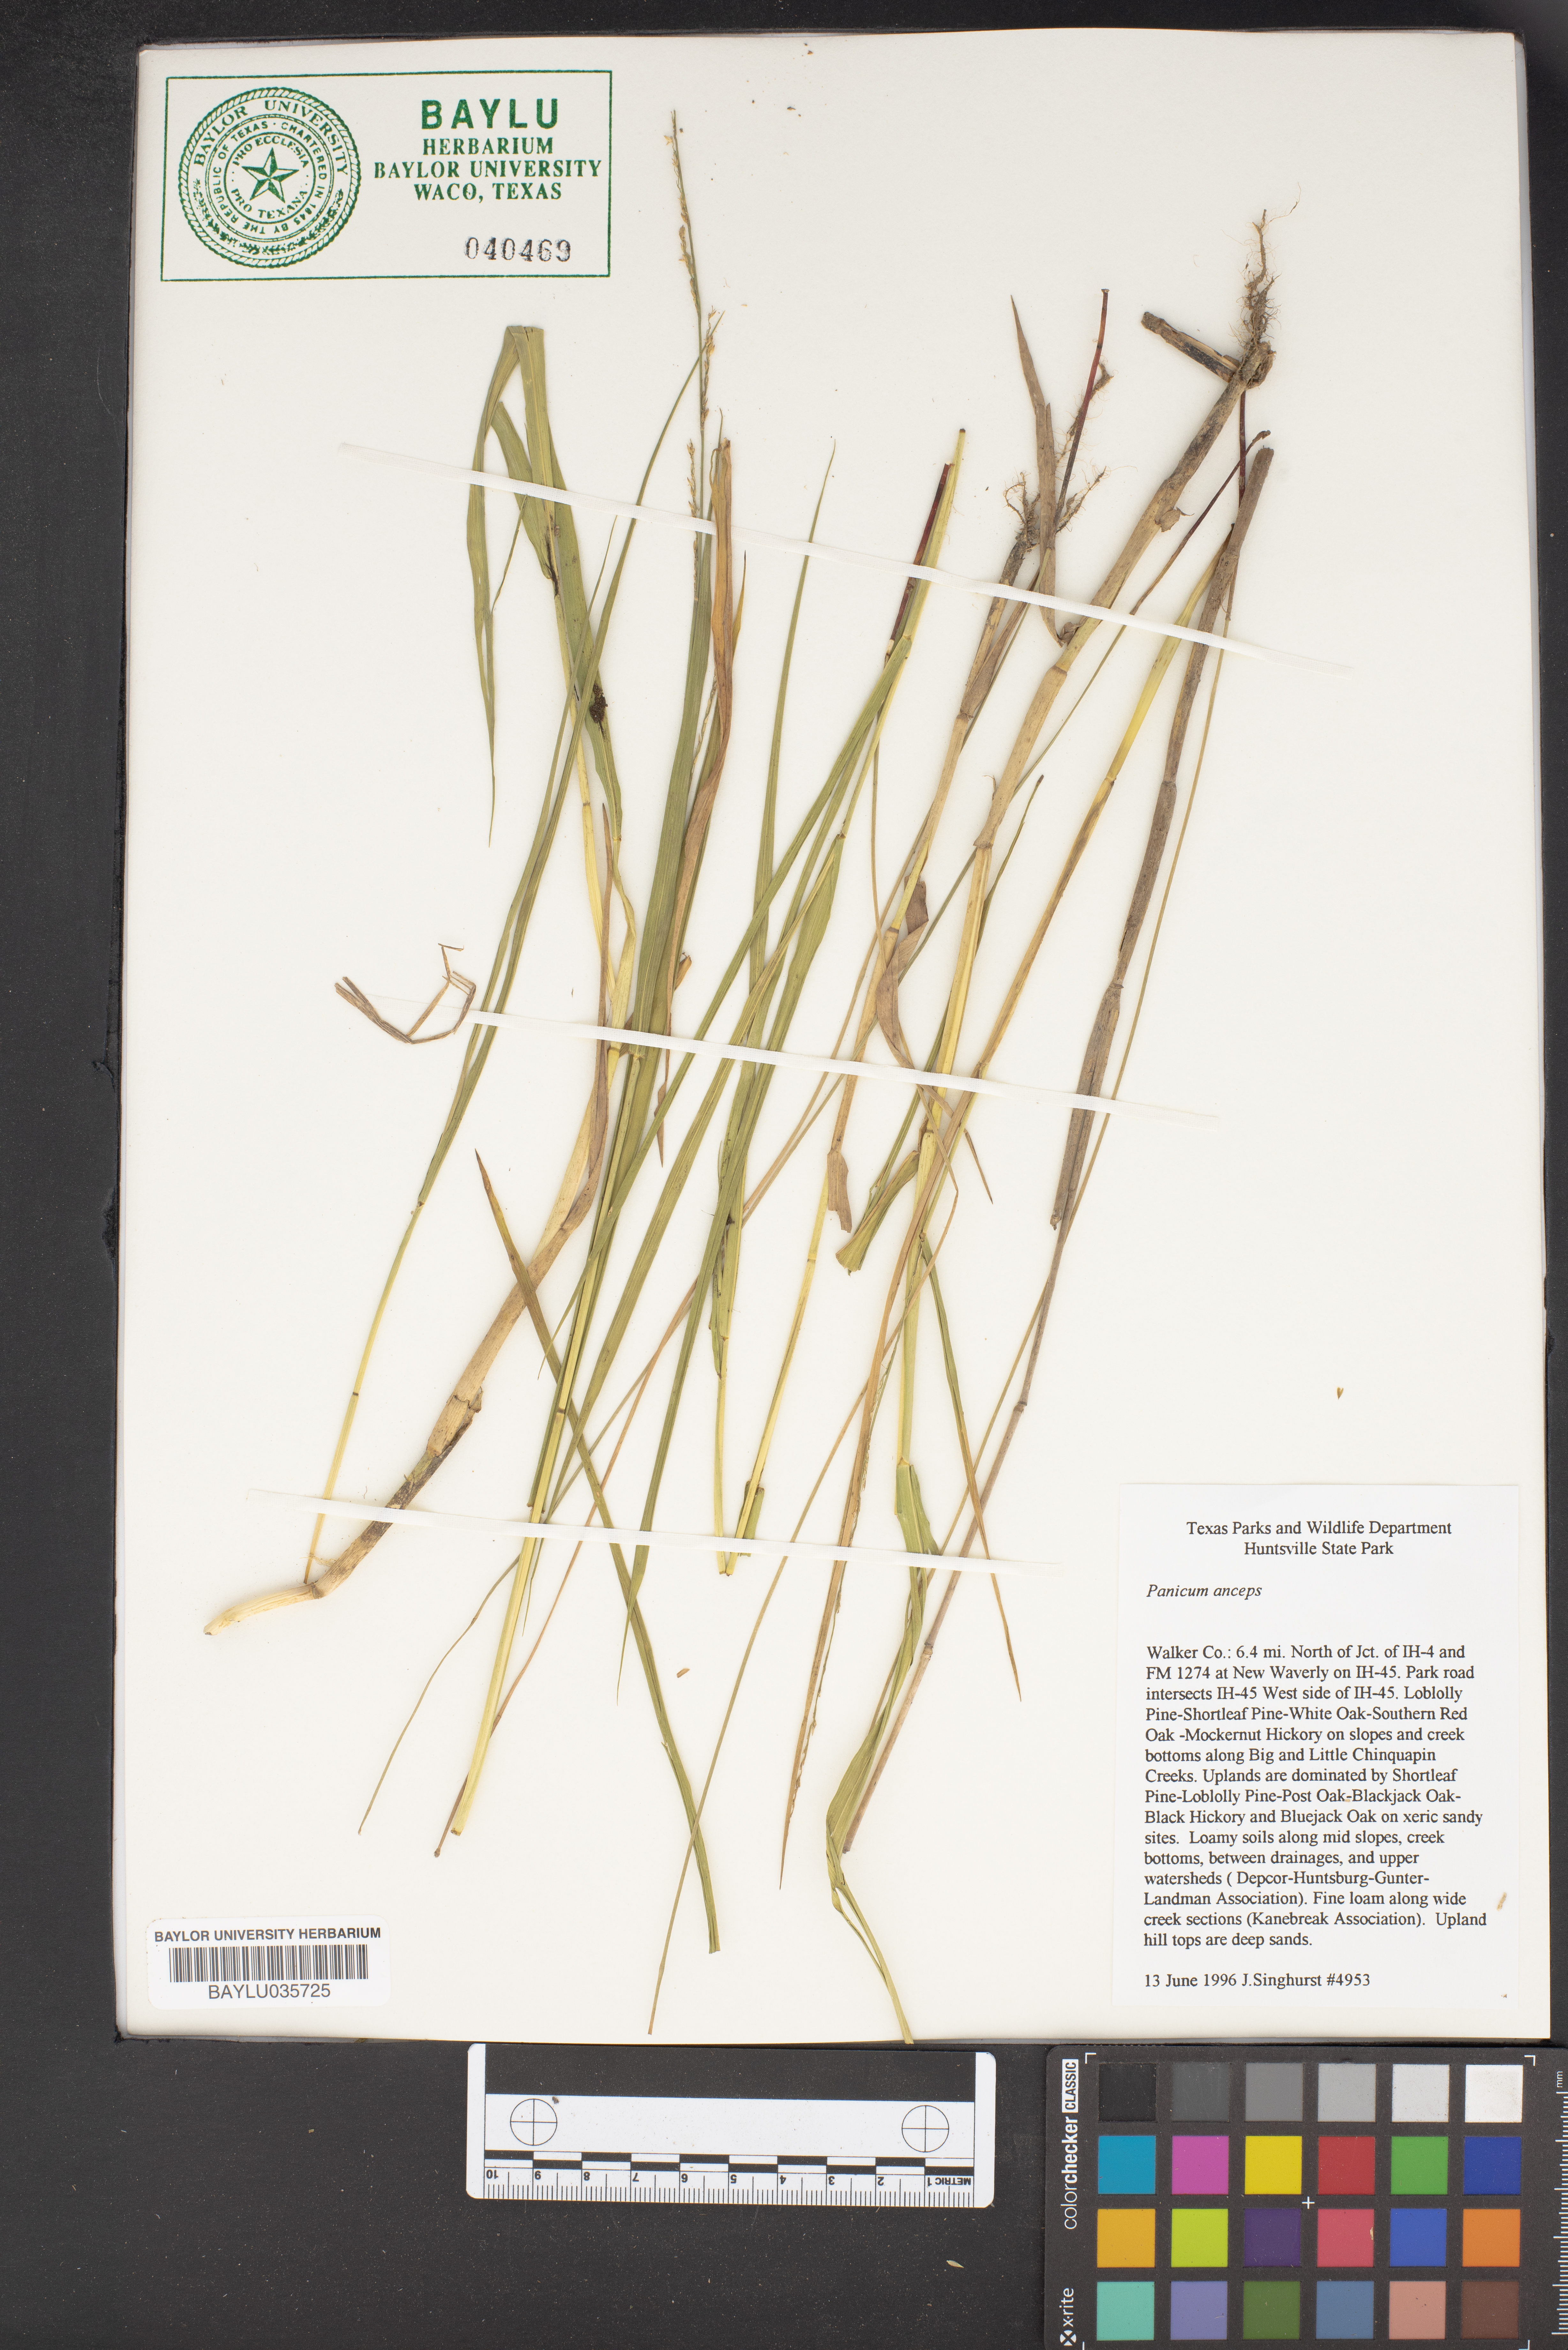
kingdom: Plantae
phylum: Tracheophyta
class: Liliopsida
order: Poales
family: Poaceae
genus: Coleataenia
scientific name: Coleataenia anceps
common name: Beaked panic grass
